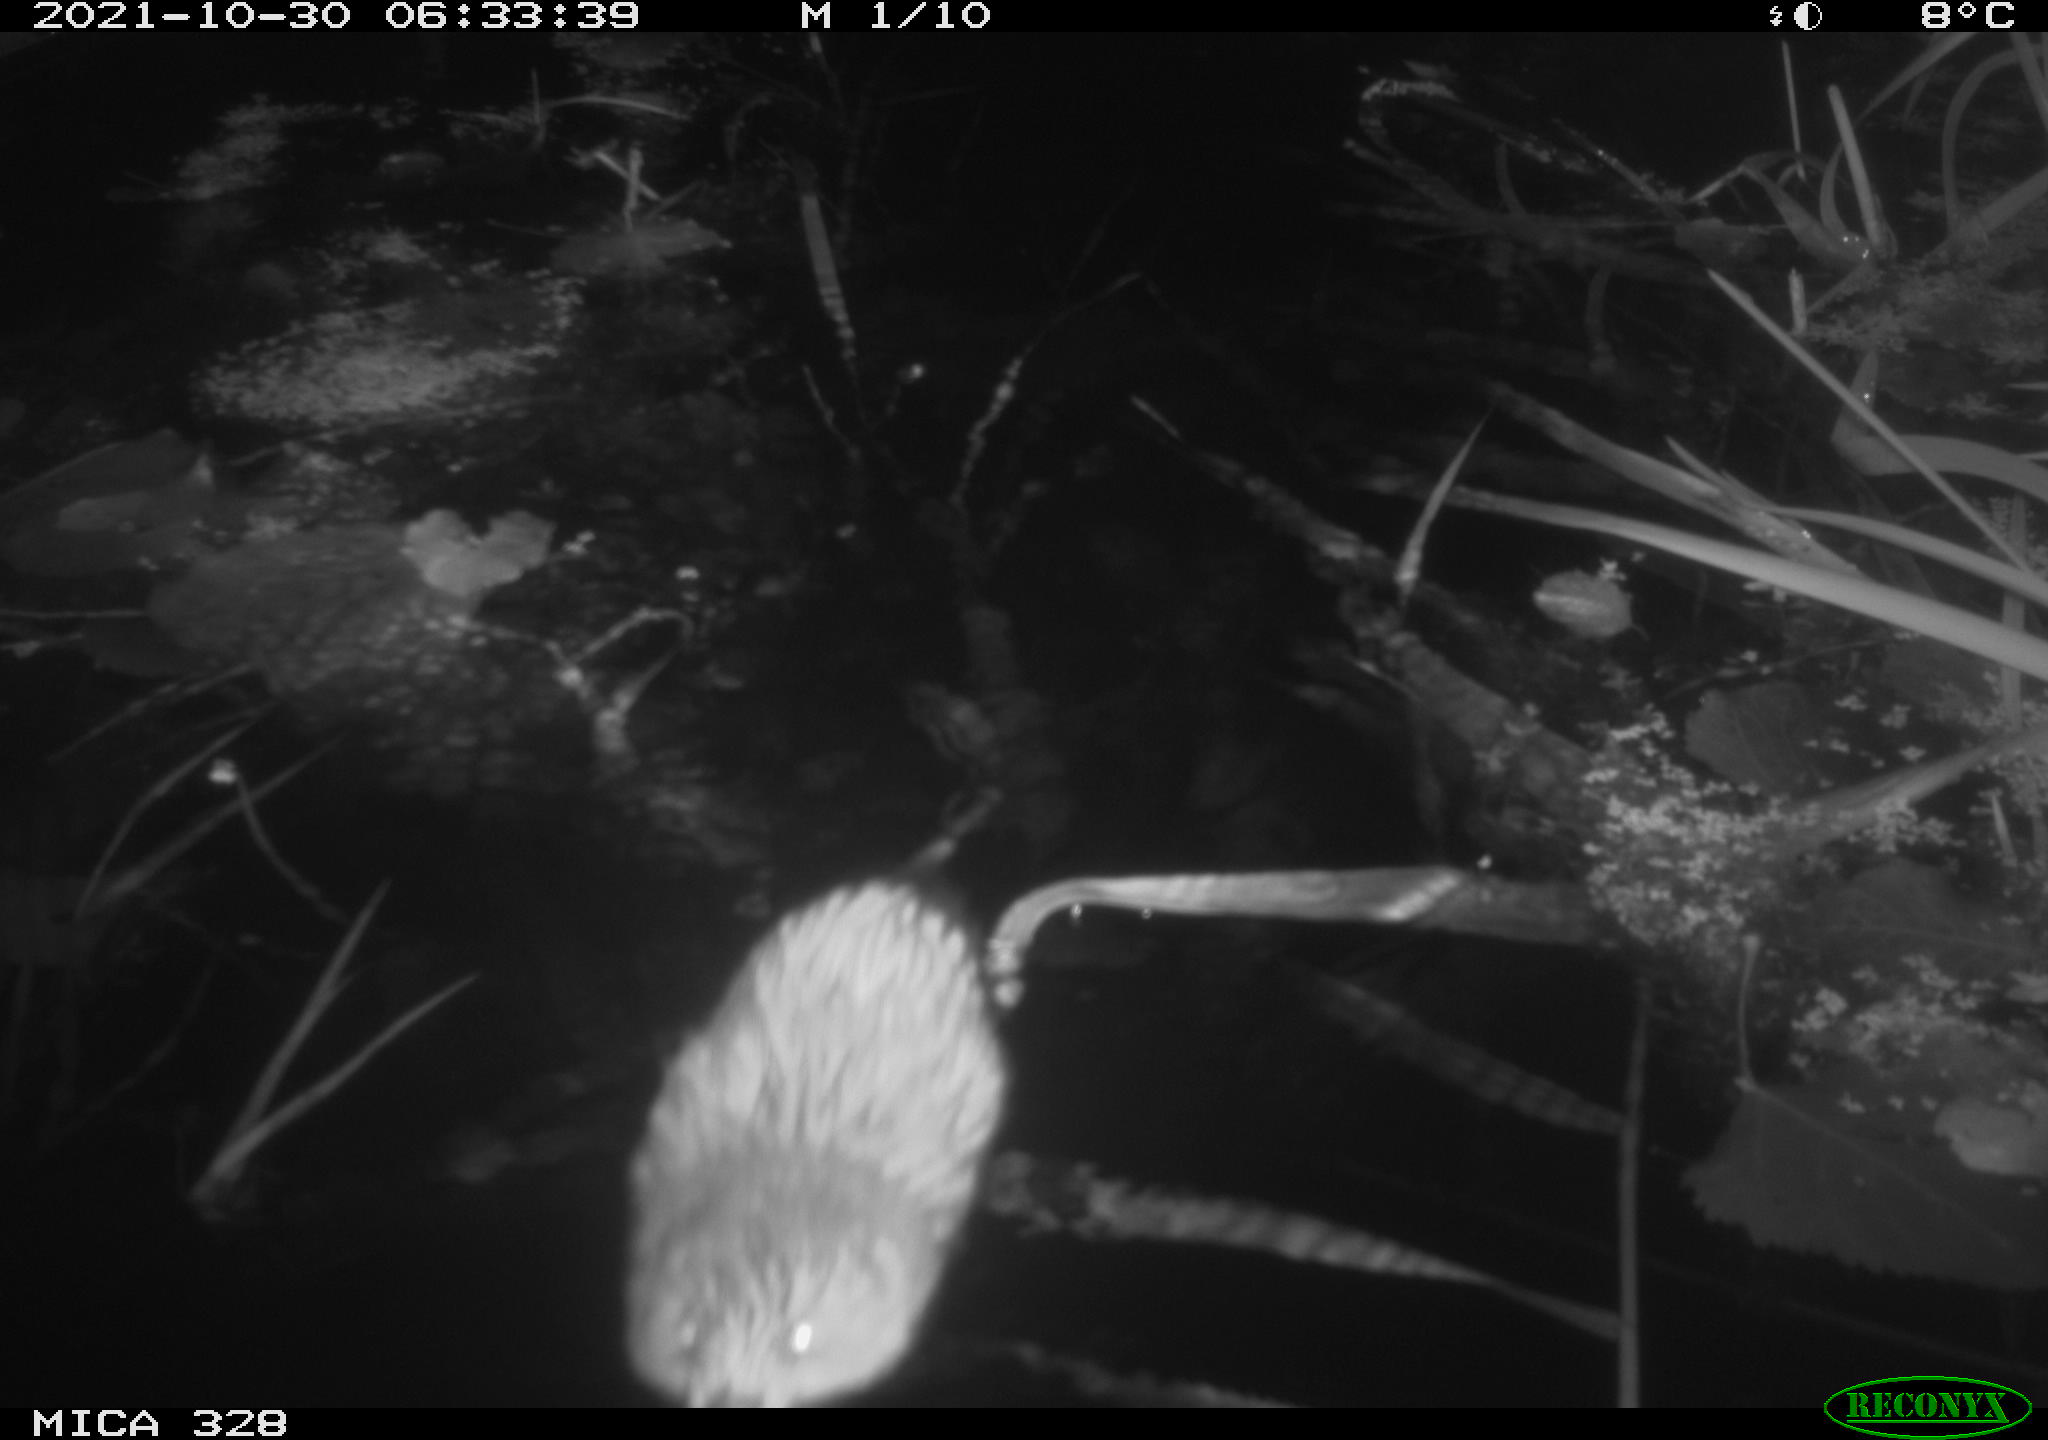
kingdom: Animalia
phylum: Chordata
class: Mammalia
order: Rodentia
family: Cricetidae
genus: Ondatra
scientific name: Ondatra zibethicus
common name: Muskrat
